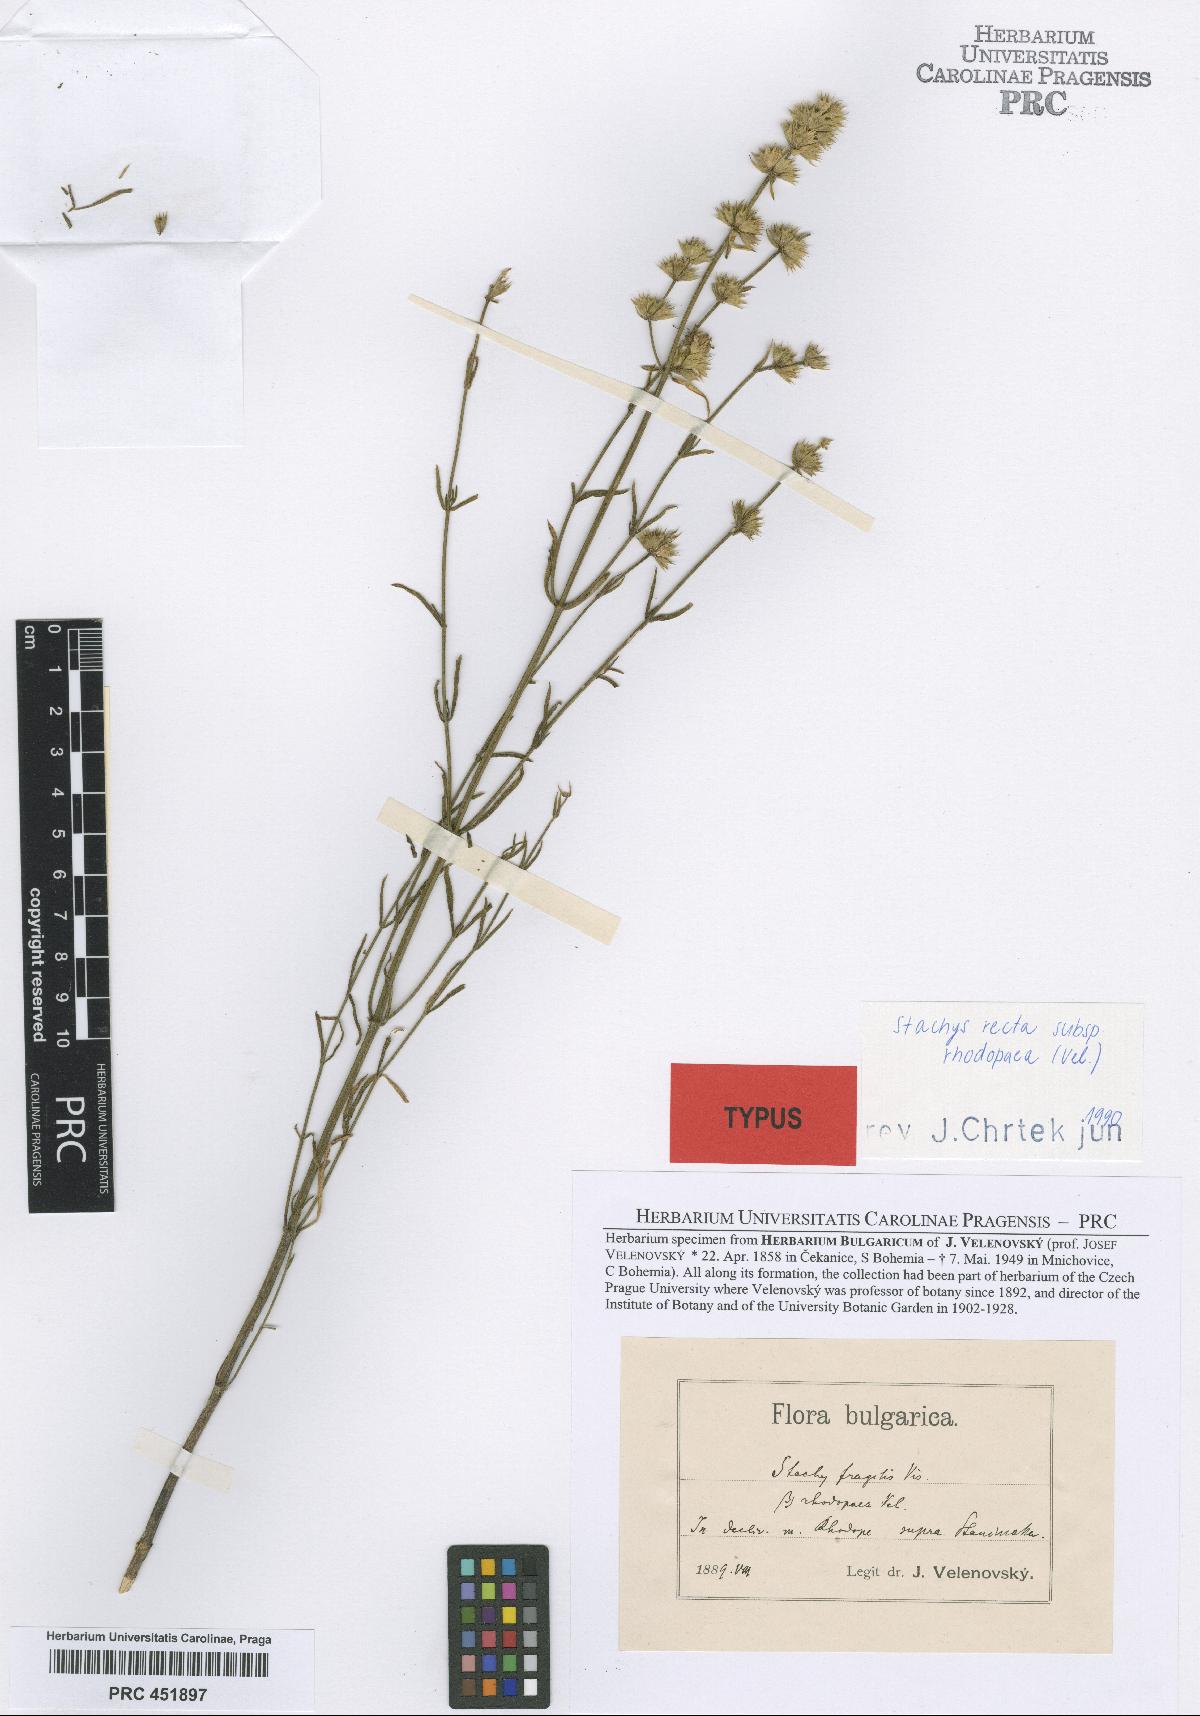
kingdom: Plantae
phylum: Tracheophyta
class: Magnoliopsida
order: Lamiales
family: Lamiaceae
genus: Stachys
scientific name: Stachys recta
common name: Perennial yellow-woundwort
